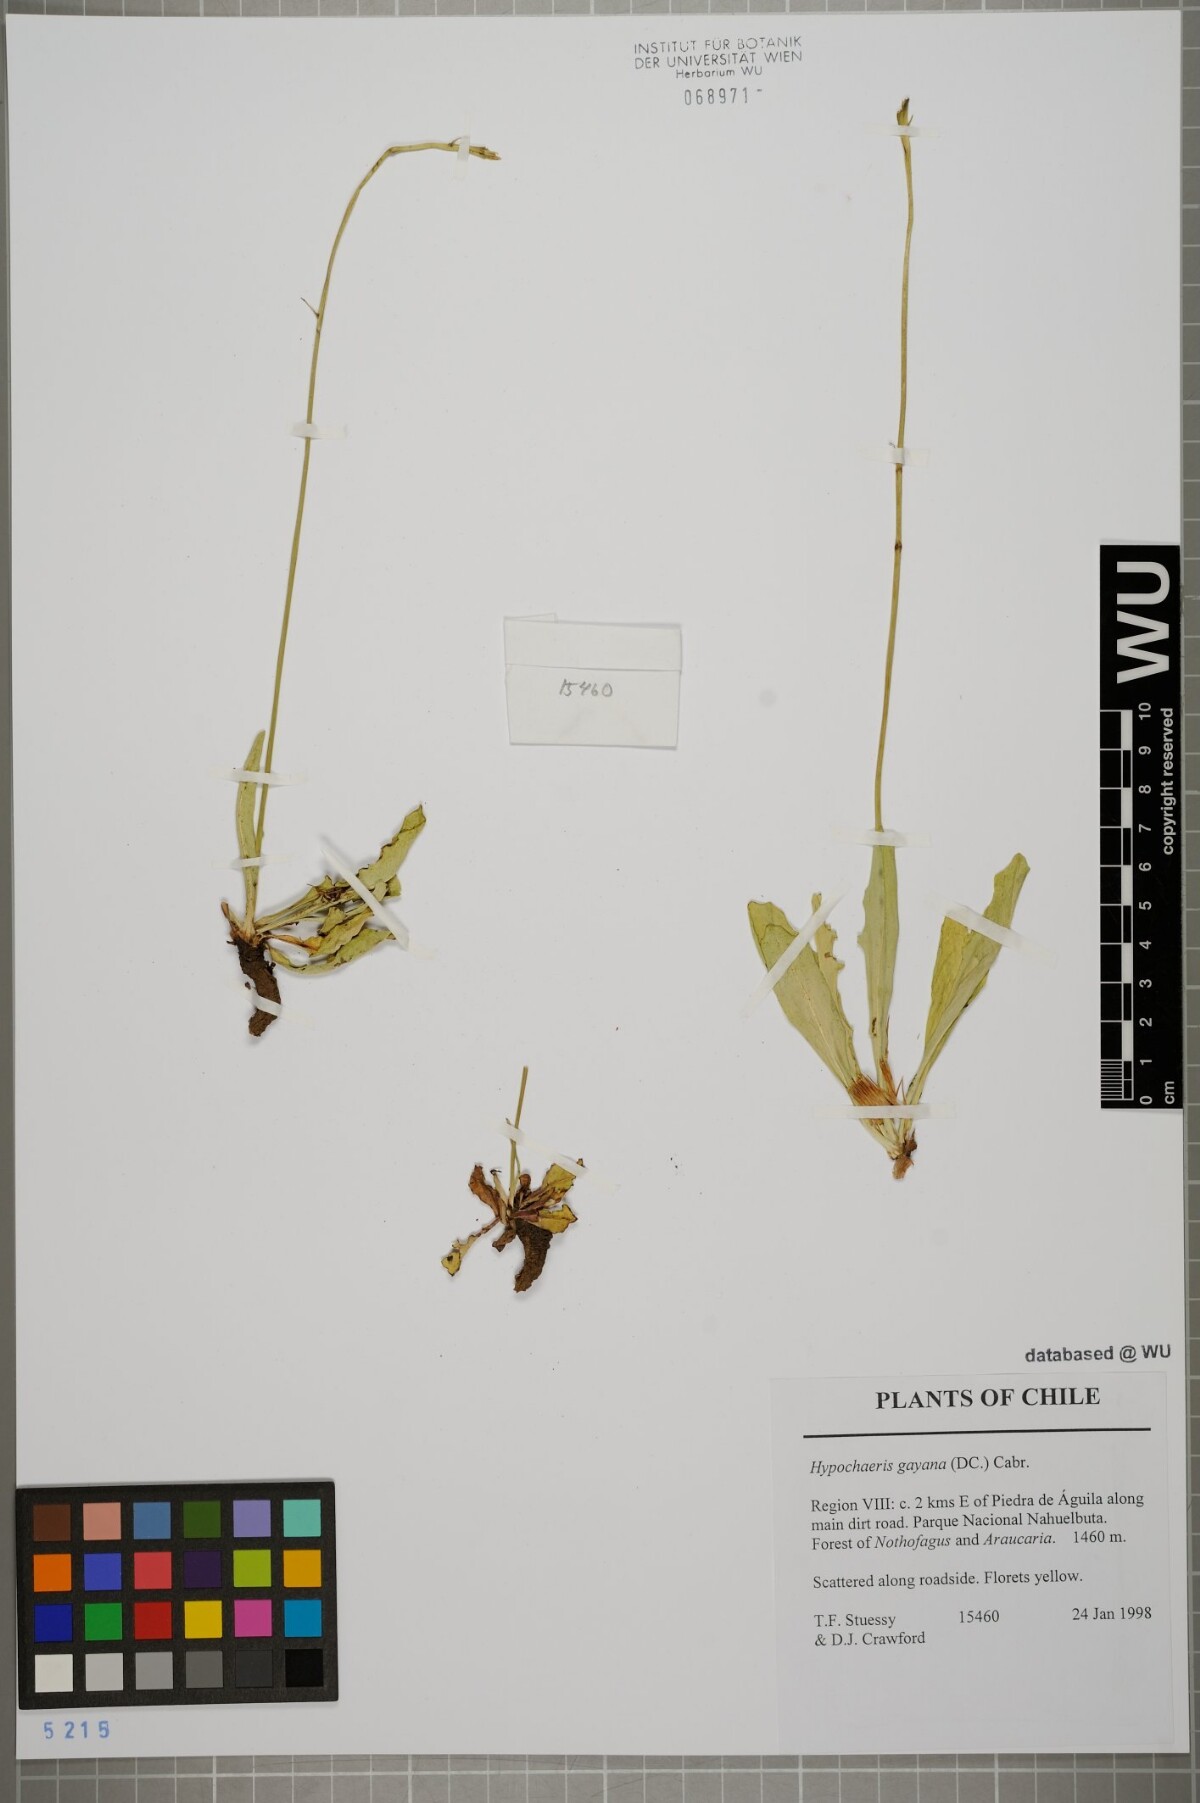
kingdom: Plantae
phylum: Tracheophyta
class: Magnoliopsida
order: Asterales
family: Asteraceae
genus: Hypochaeris
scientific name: Hypochaeris melanolepis
